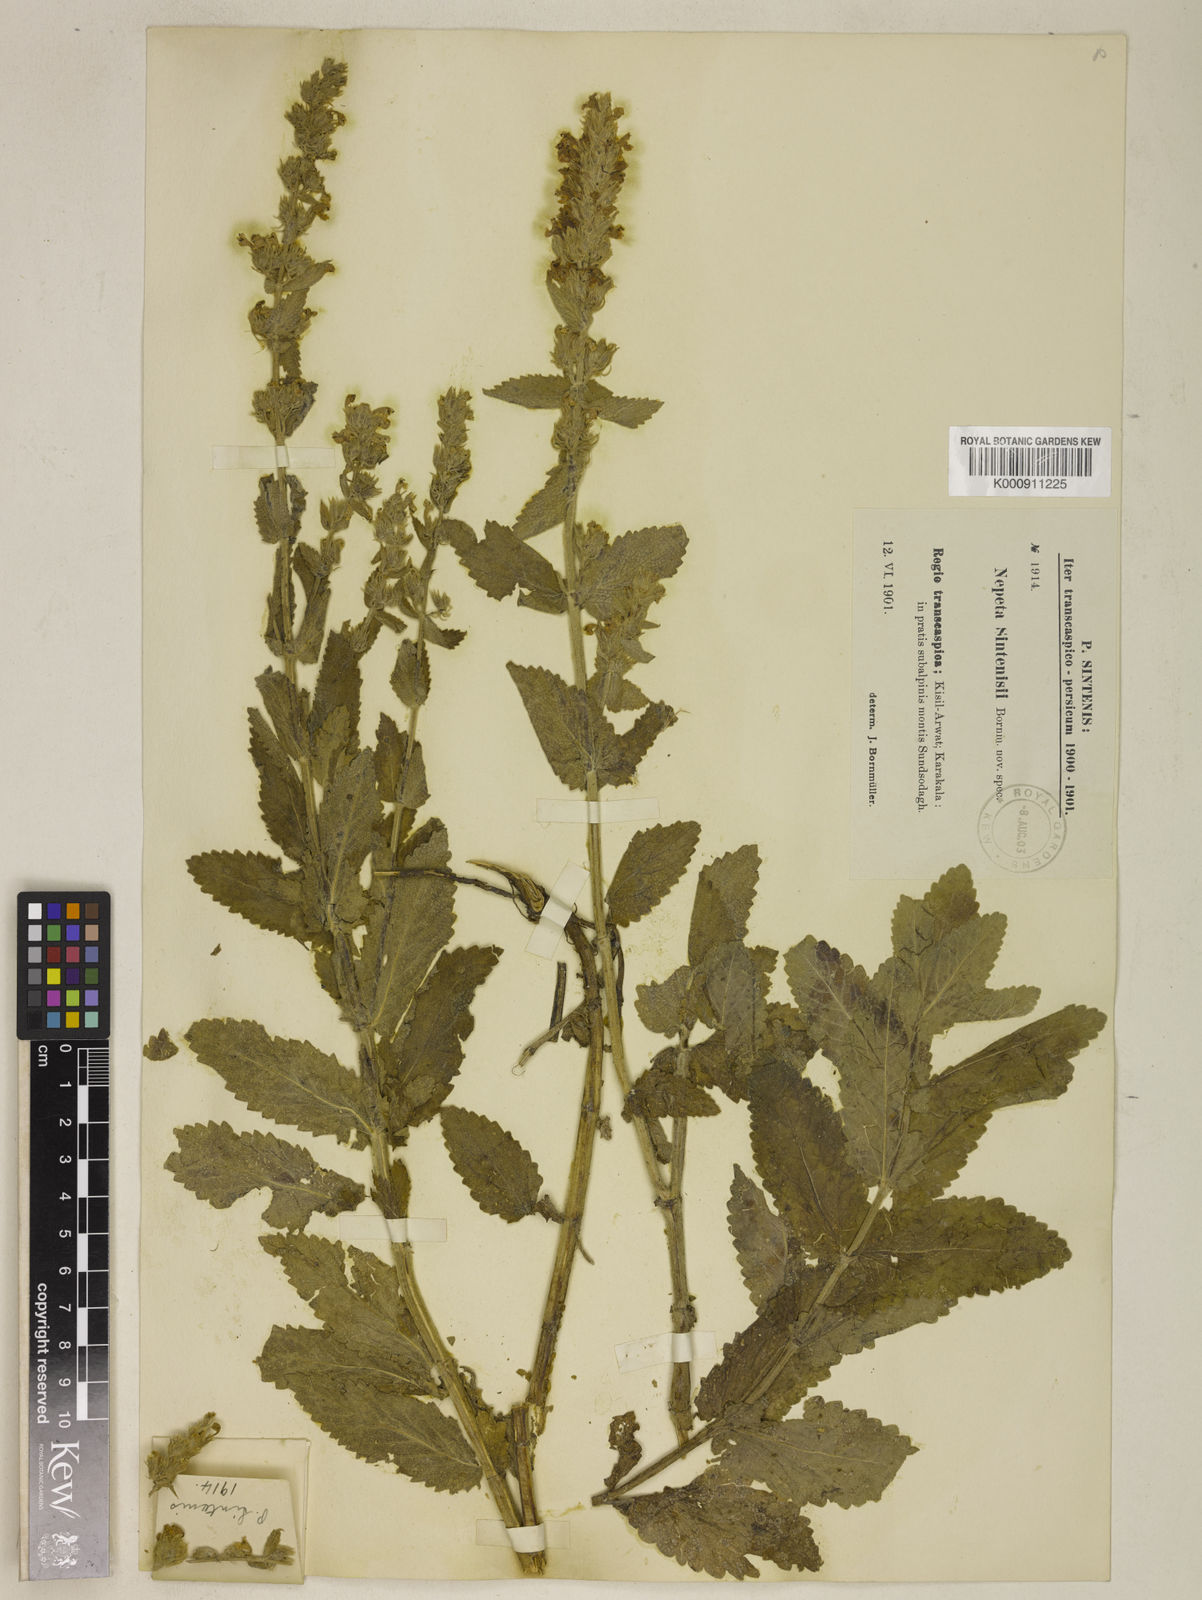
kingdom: Plantae
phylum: Tracheophyta
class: Magnoliopsida
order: Lamiales
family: Lamiaceae
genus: Nepeta
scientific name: Nepeta bodeana
